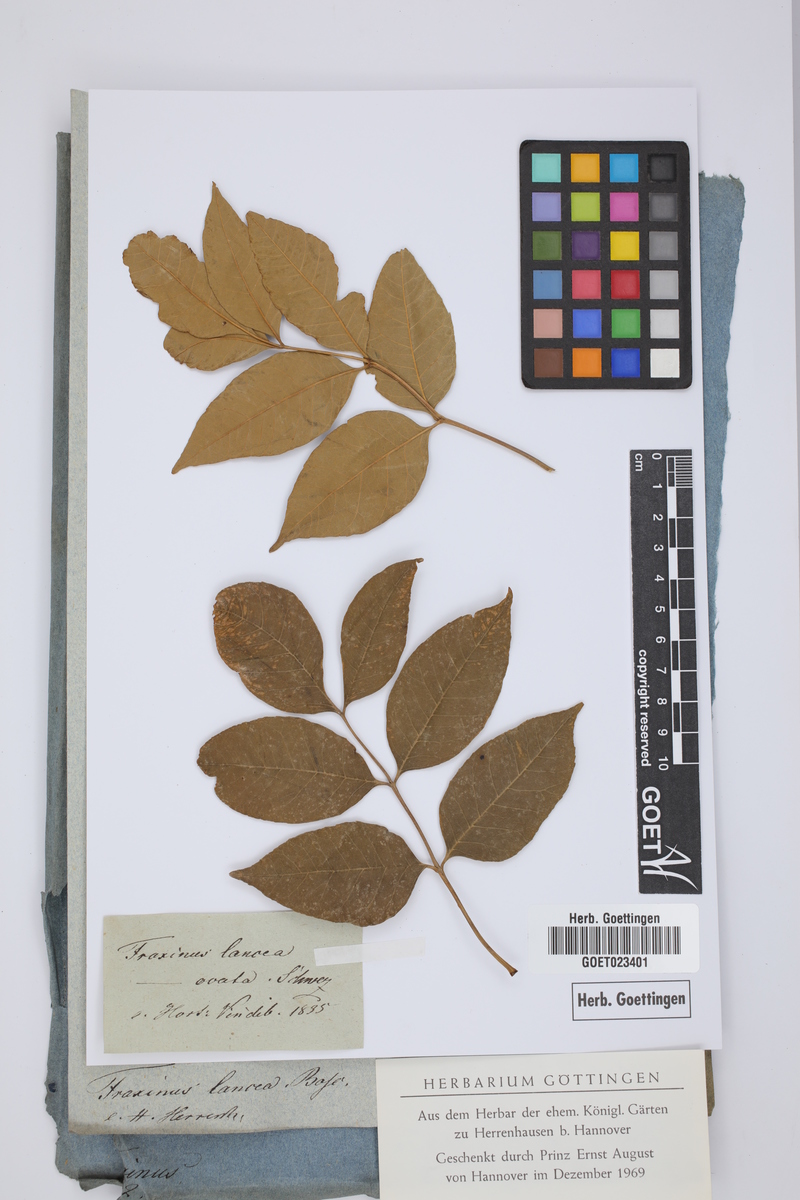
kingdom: Plantae
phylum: Tracheophyta
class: Magnoliopsida
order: Lamiales
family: Oleaceae
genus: Fraxinus
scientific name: Fraxinus pennsylvanica
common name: Green ash
